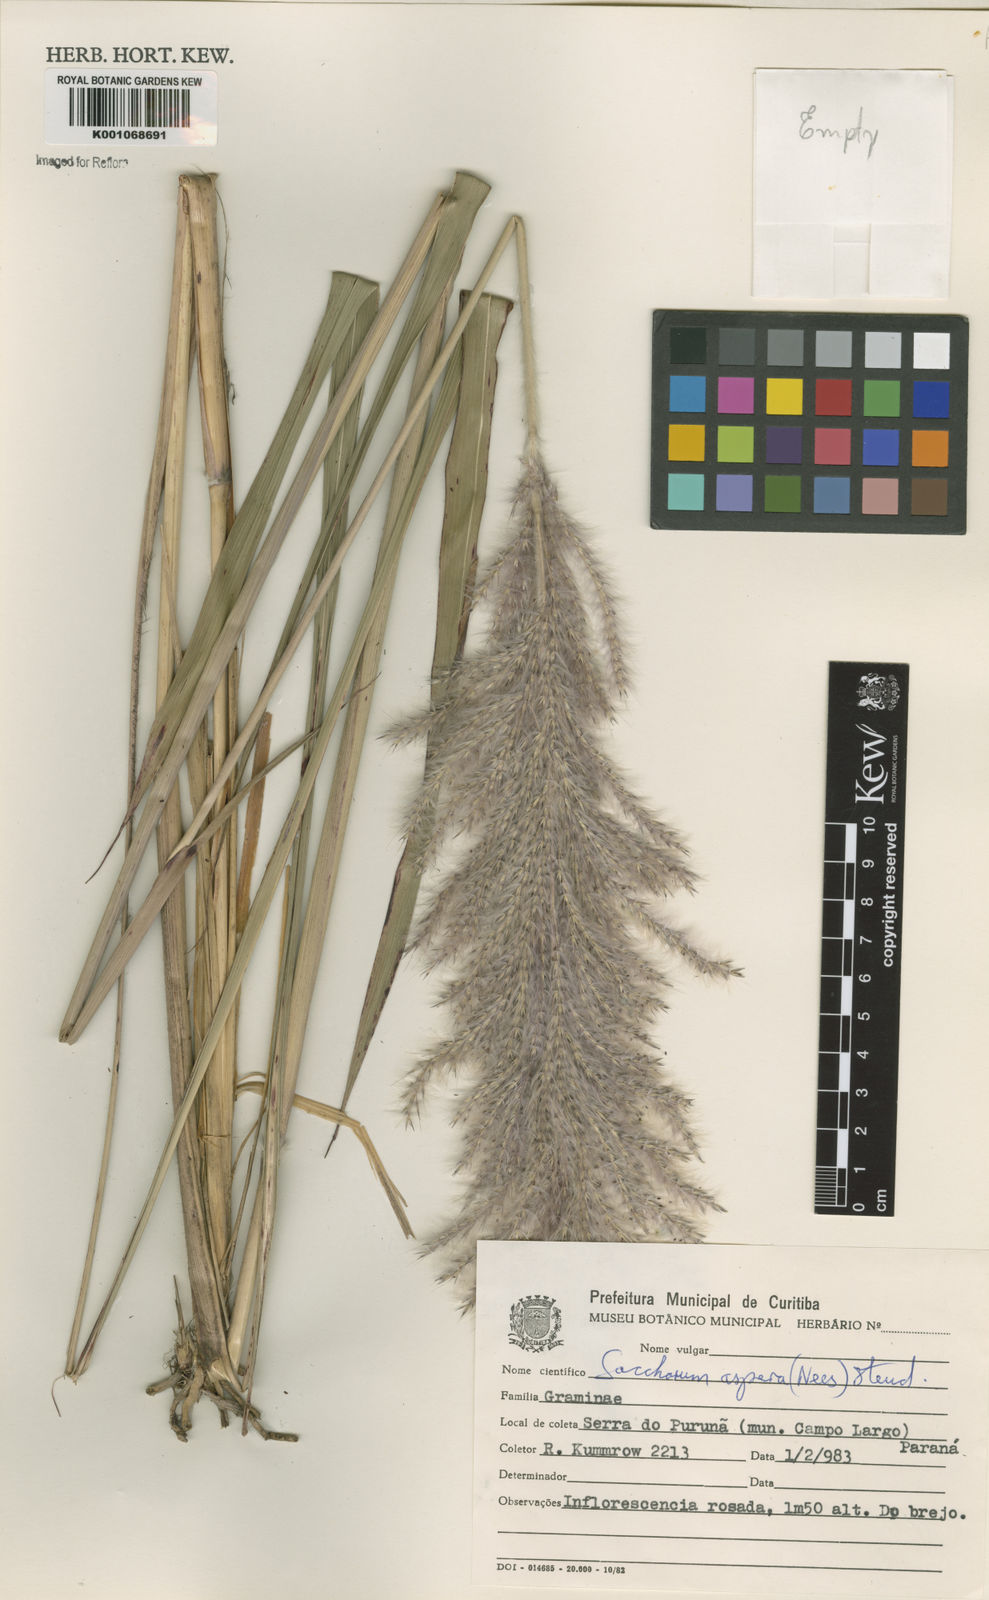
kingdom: Plantae
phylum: Tracheophyta
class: Liliopsida
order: Poales
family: Poaceae
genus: Erianthus
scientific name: Erianthus asper
